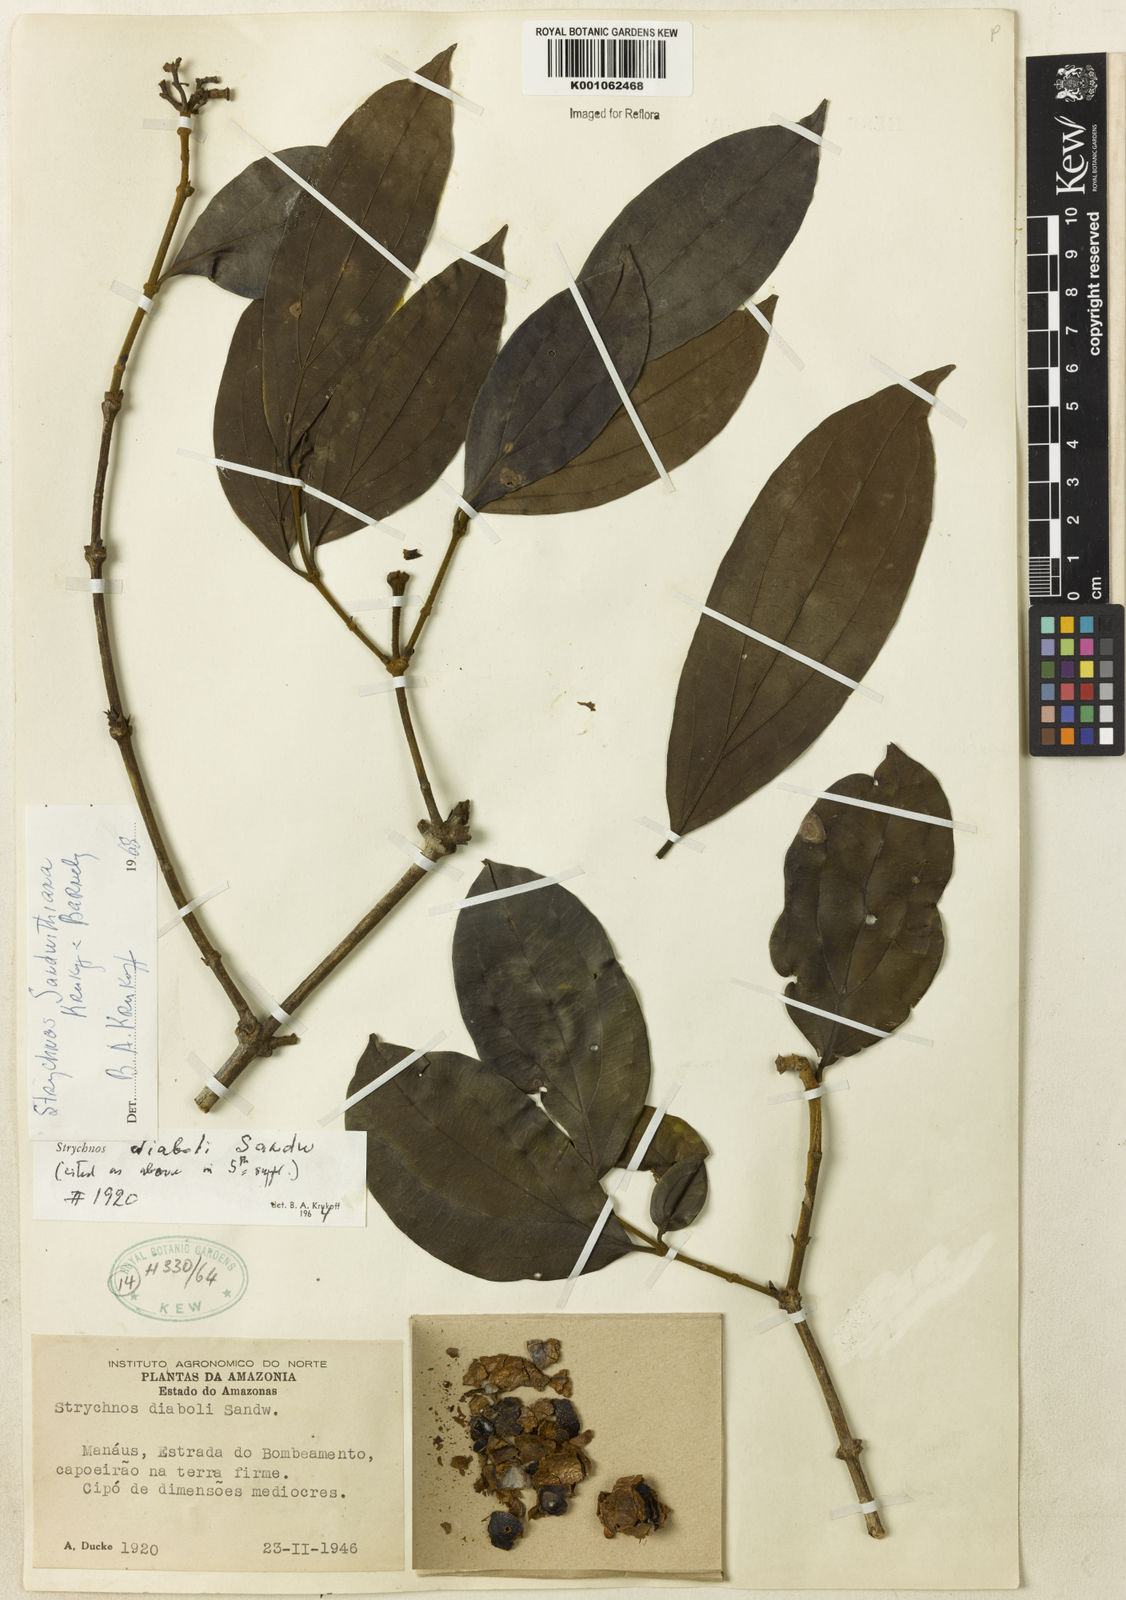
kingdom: Plantae
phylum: Tracheophyta
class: Magnoliopsida
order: Gentianales
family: Loganiaceae
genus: Strychnos
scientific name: Strychnos sandwithiana
